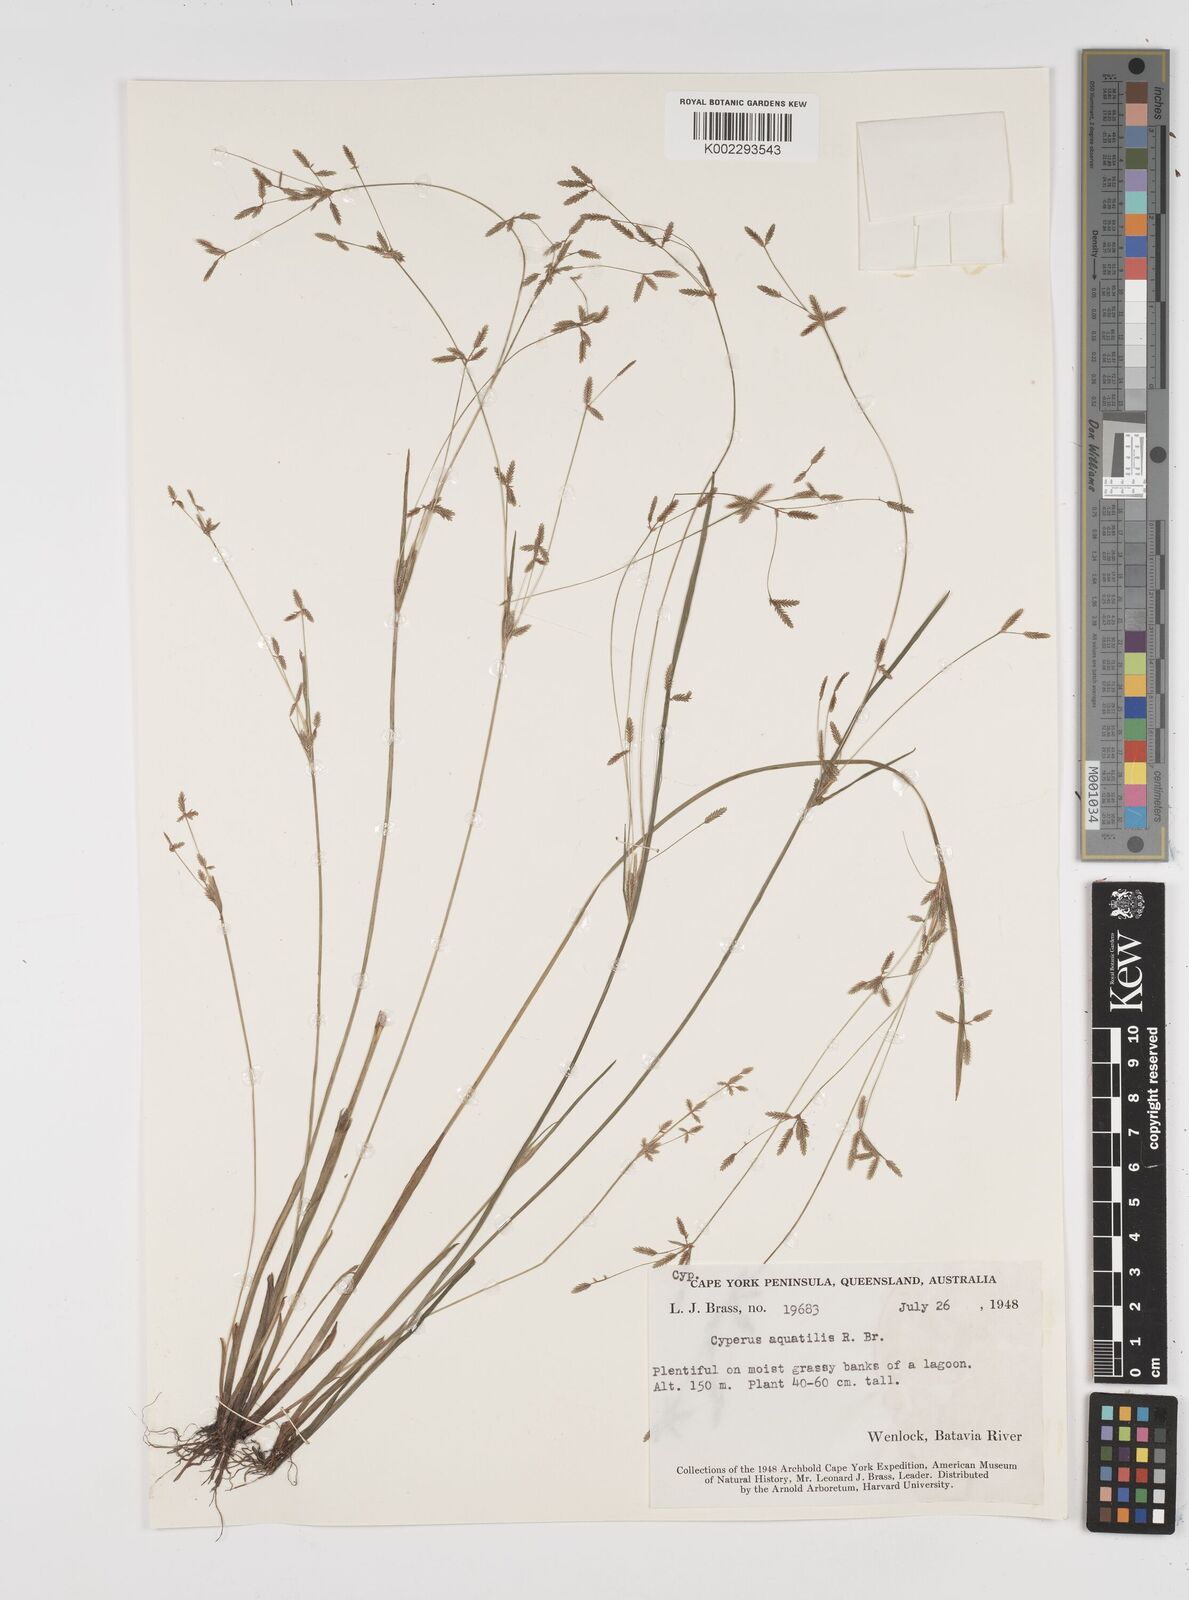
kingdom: Plantae
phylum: Tracheophyta
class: Liliopsida
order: Poales
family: Cyperaceae
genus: Cyperus
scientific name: Cyperus aquatilis
